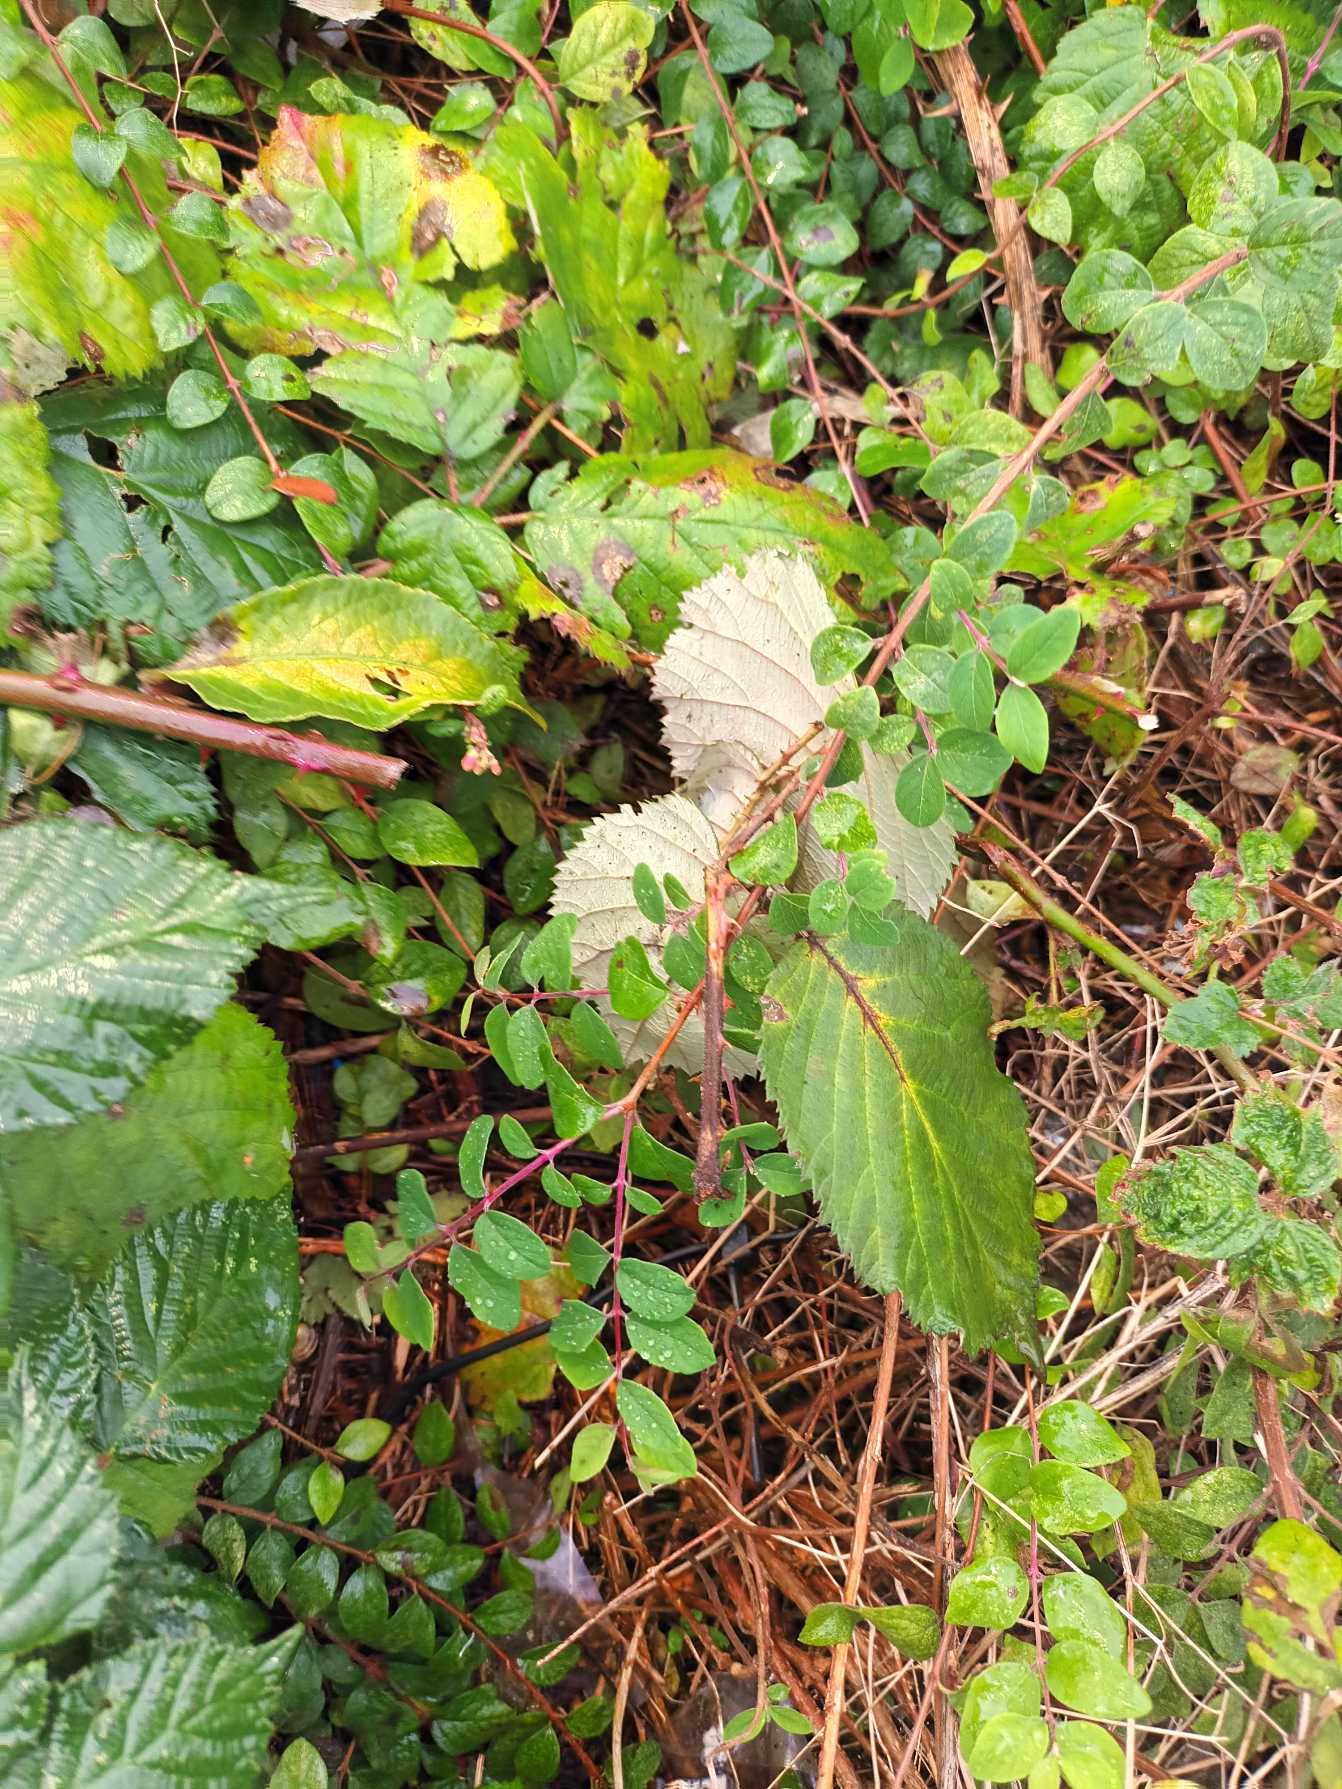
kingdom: Plantae
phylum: Tracheophyta
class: Magnoliopsida
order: Rosales
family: Rosaceae
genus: Rubus
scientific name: Rubus armeniacus
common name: Armensk brombær
